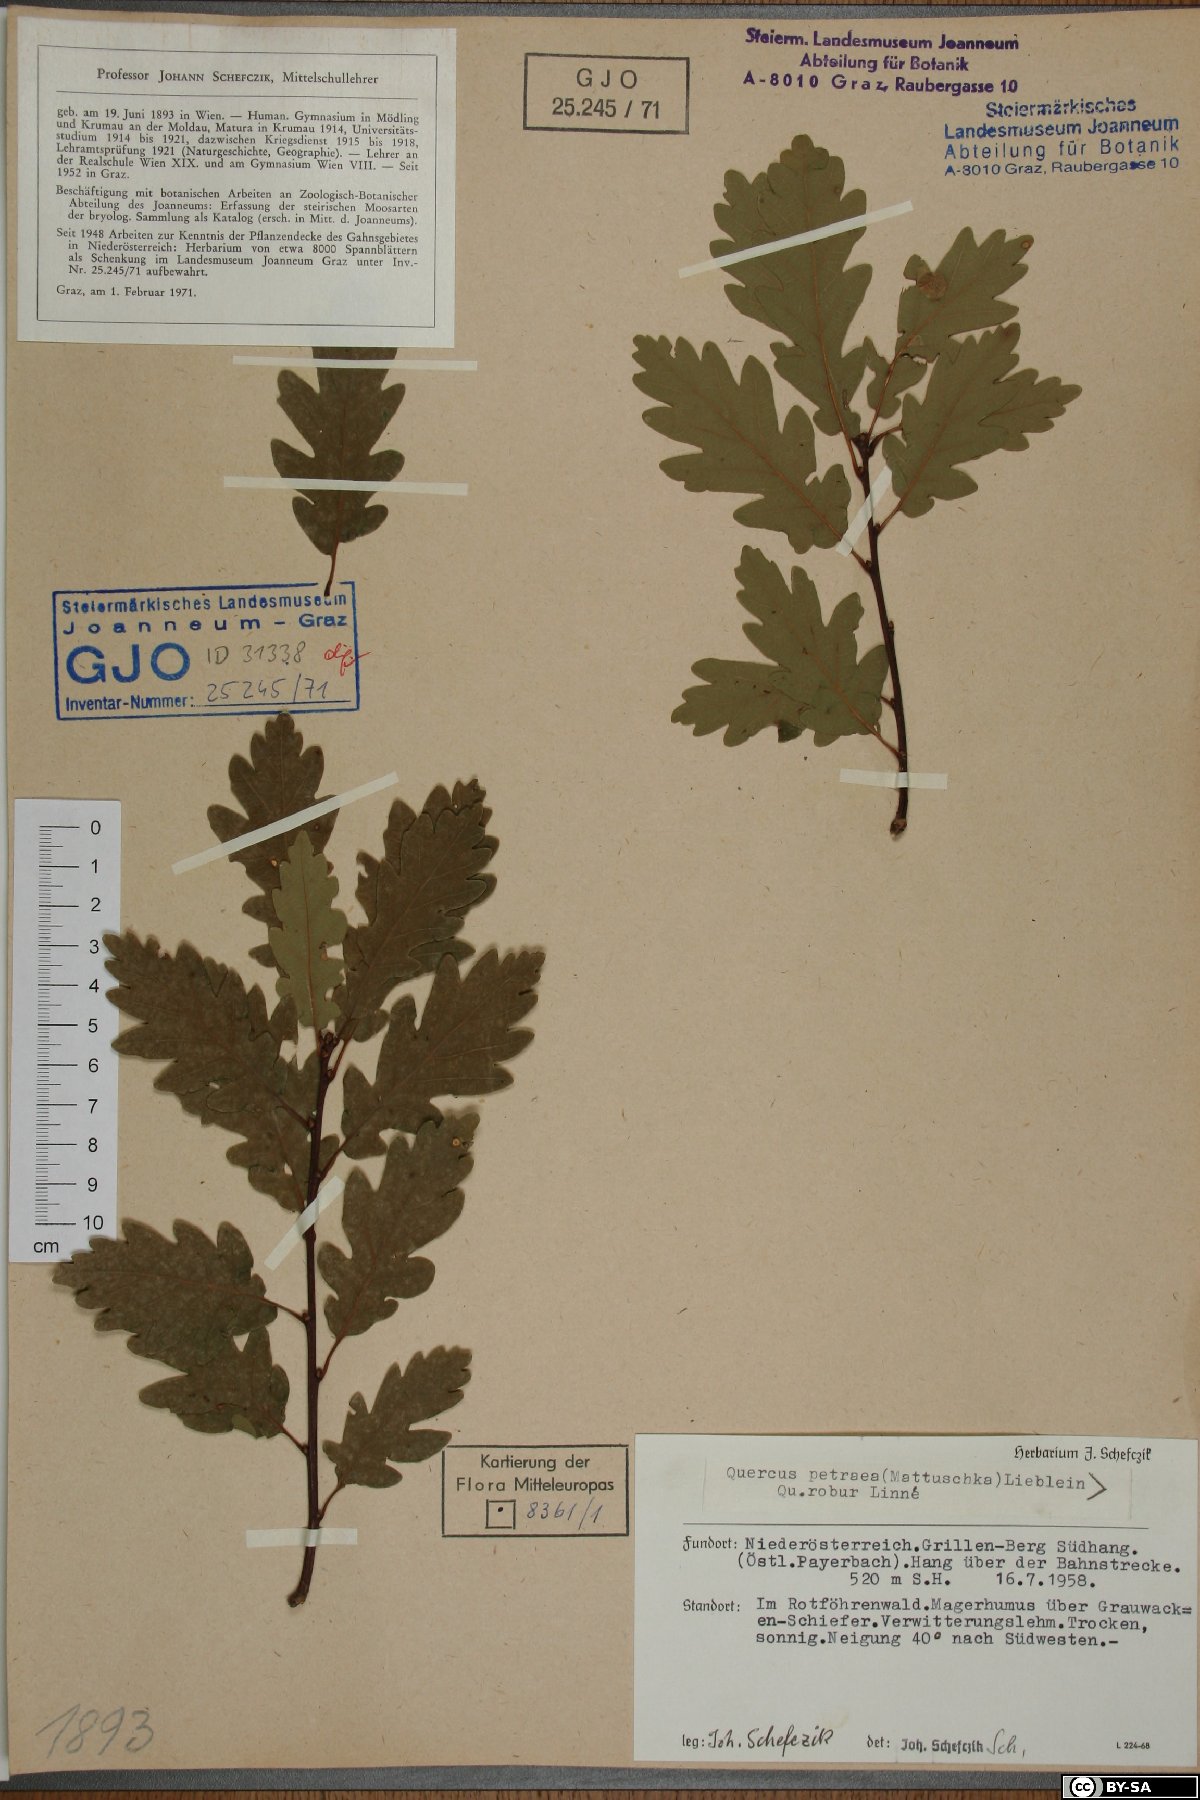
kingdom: Plantae
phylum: Tracheophyta
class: Magnoliopsida
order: Fagales
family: Fagaceae
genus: Quercus
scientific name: Quercus petraea
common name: Sessile oak
